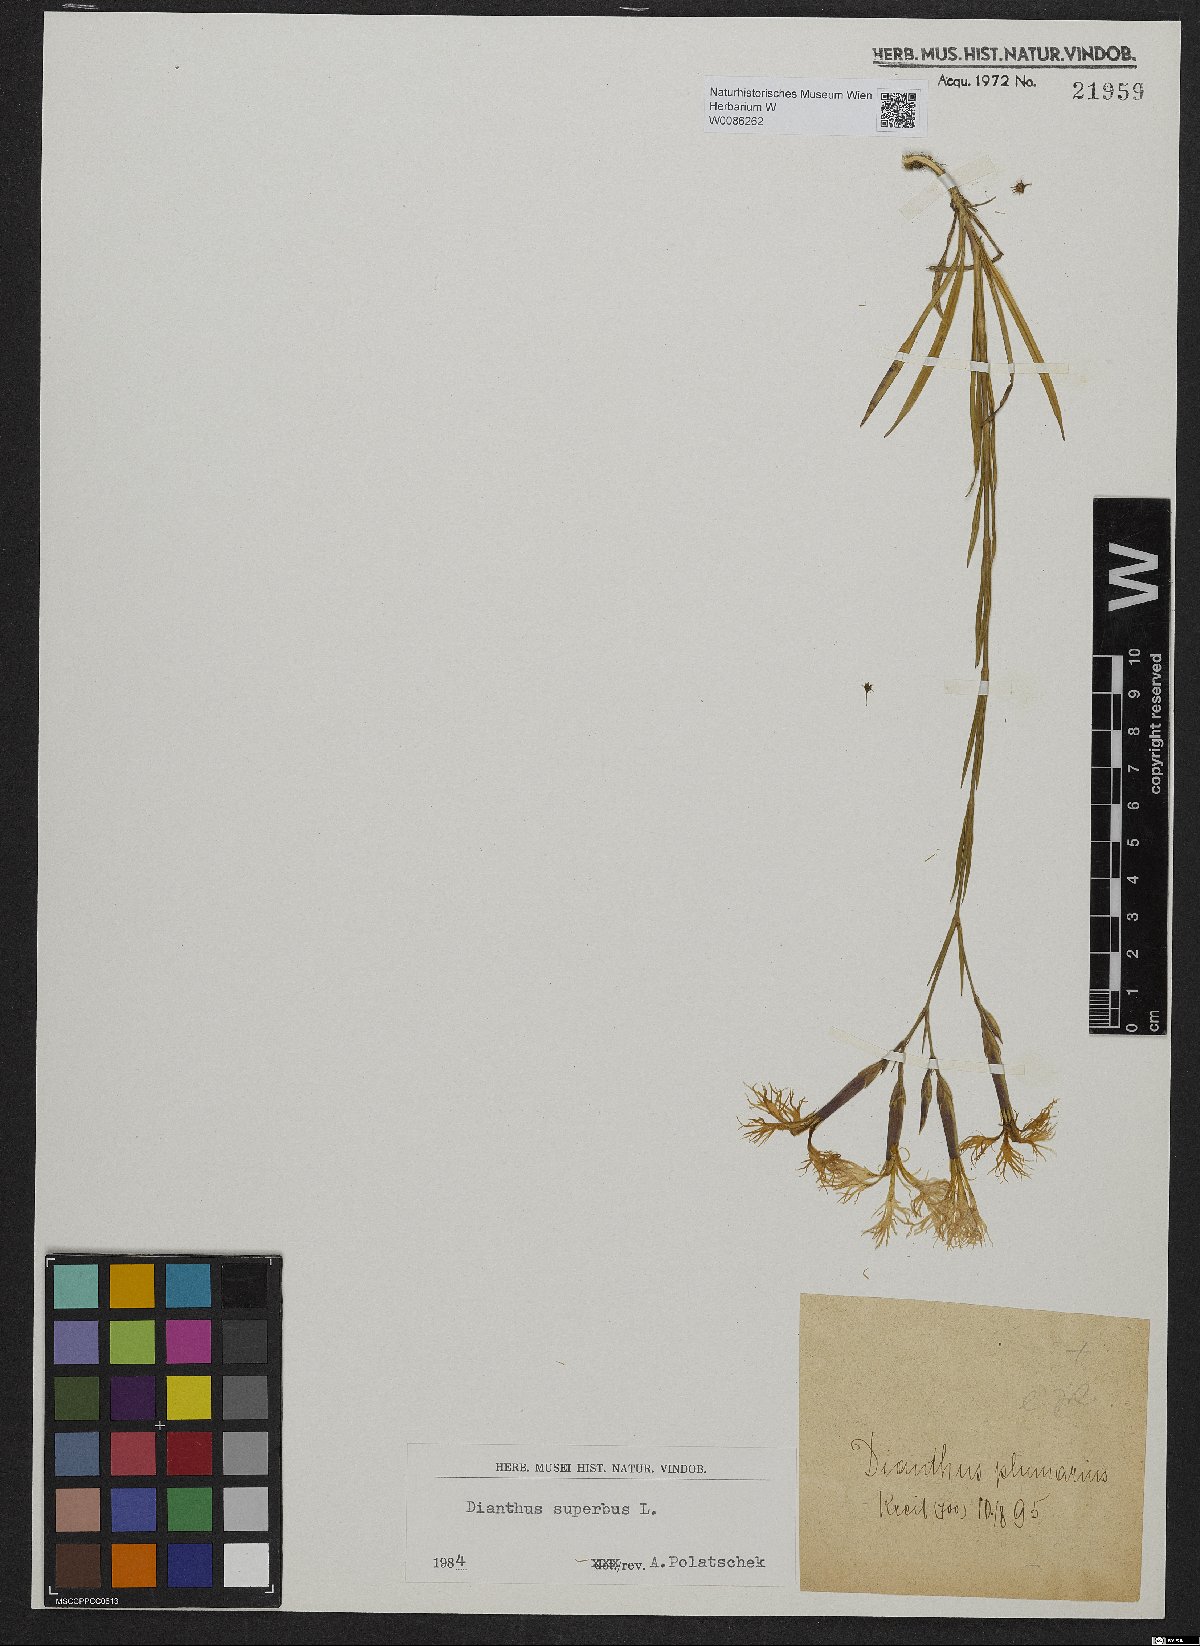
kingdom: Plantae
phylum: Tracheophyta
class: Magnoliopsida
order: Caryophyllales
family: Caryophyllaceae
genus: Dianthus
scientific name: Dianthus superbus
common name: Fringed pink
